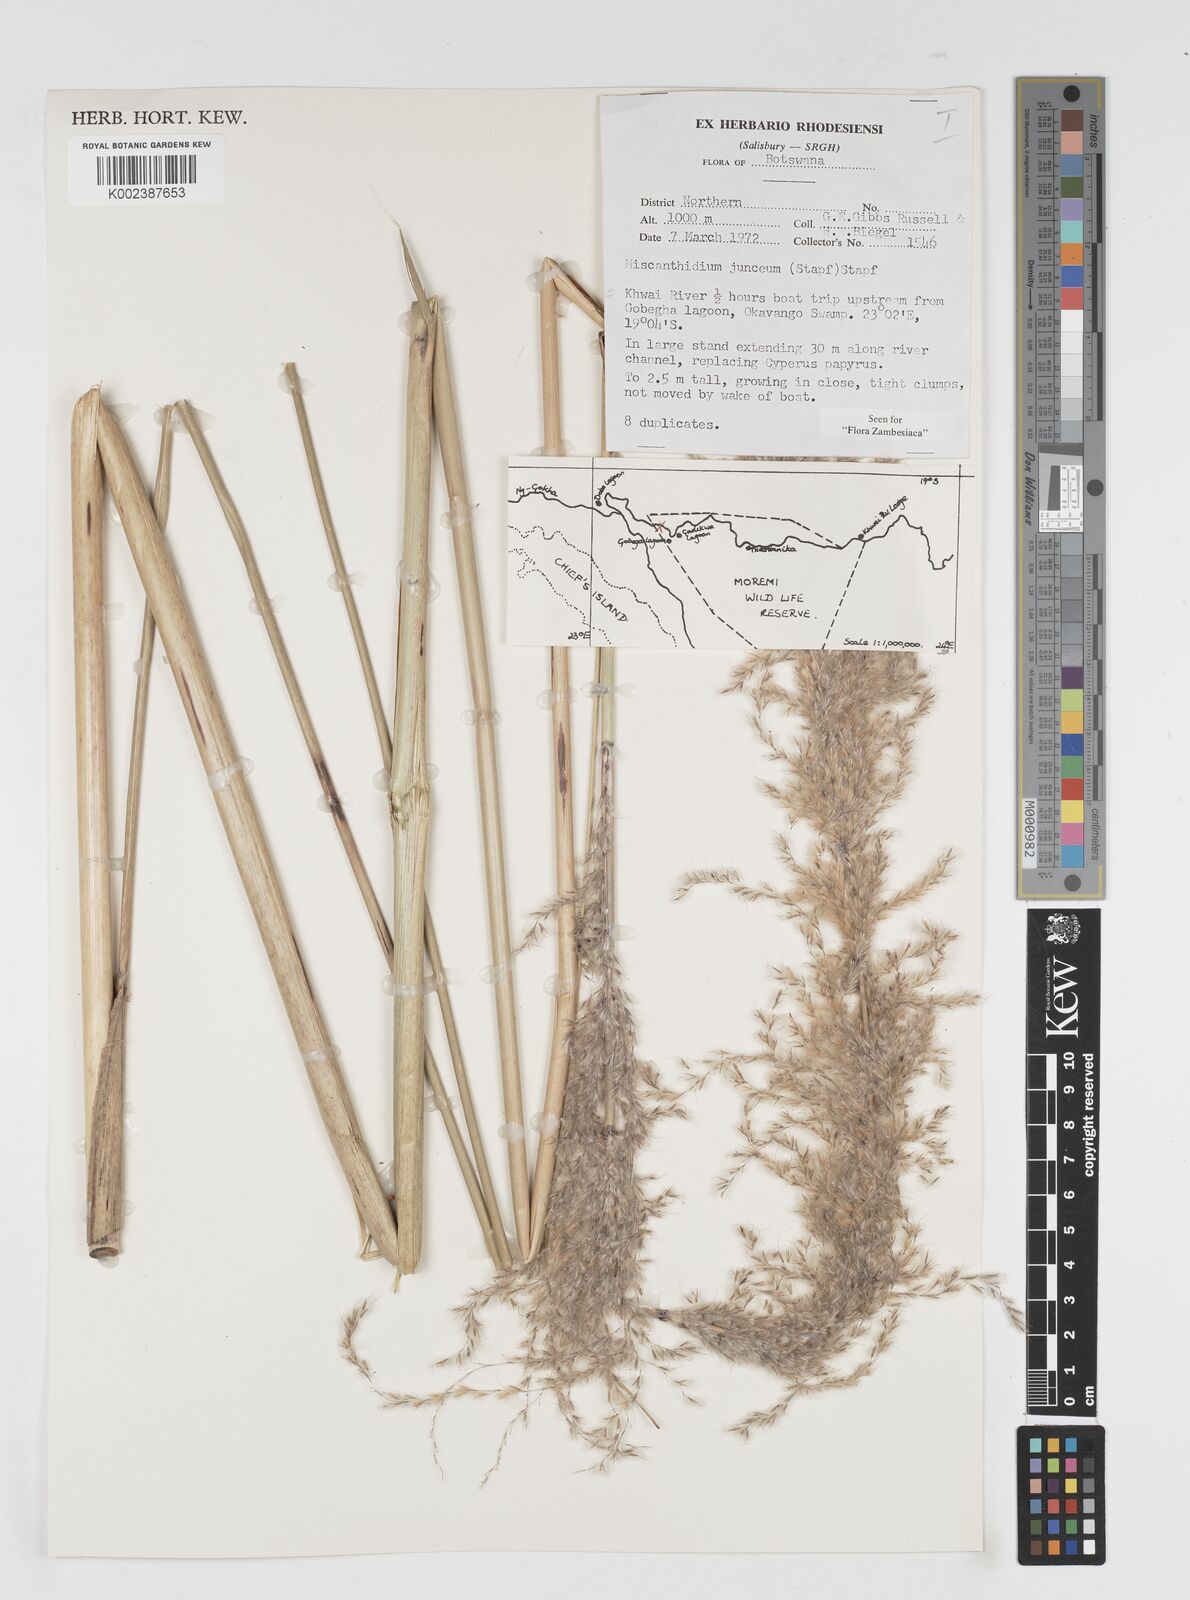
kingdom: Plantae
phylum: Tracheophyta
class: Liliopsida
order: Poales
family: Poaceae
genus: Miscanthidium
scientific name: Miscanthidium junceum
